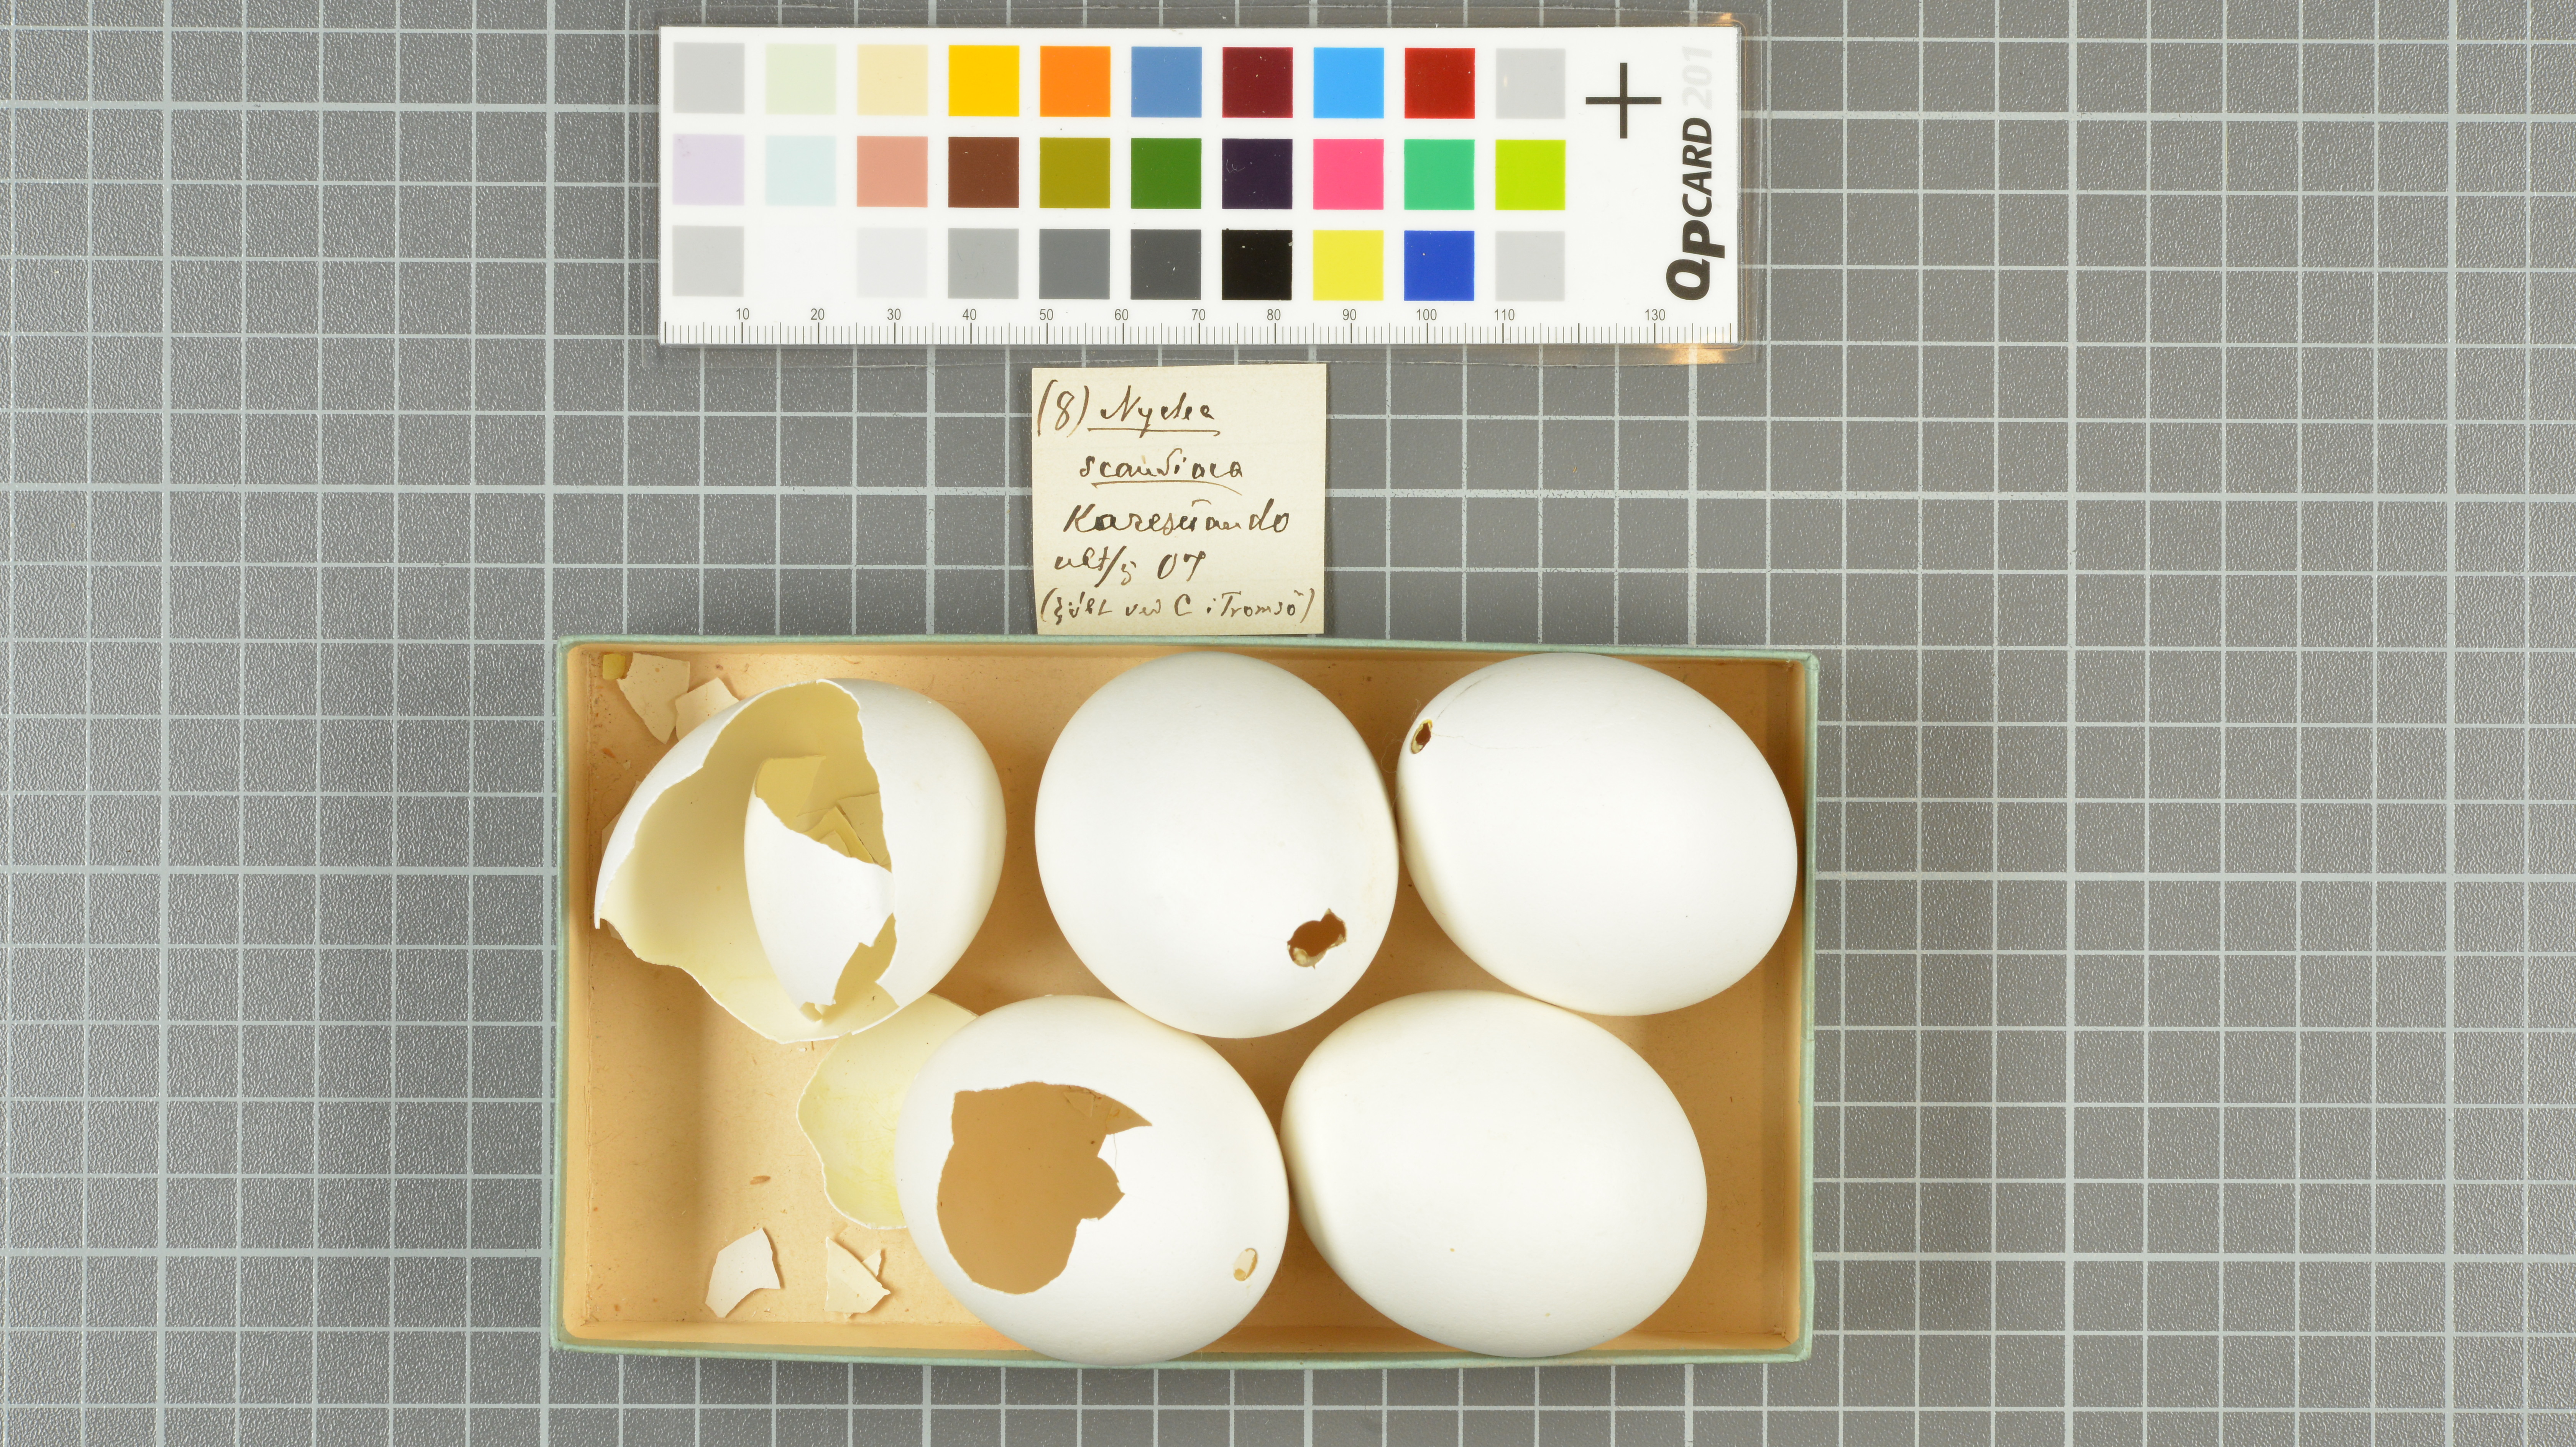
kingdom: Animalia
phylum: Chordata
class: Aves
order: Strigiformes
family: Strigidae
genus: Bubo
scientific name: Bubo scandiacus
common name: Snowy owl
